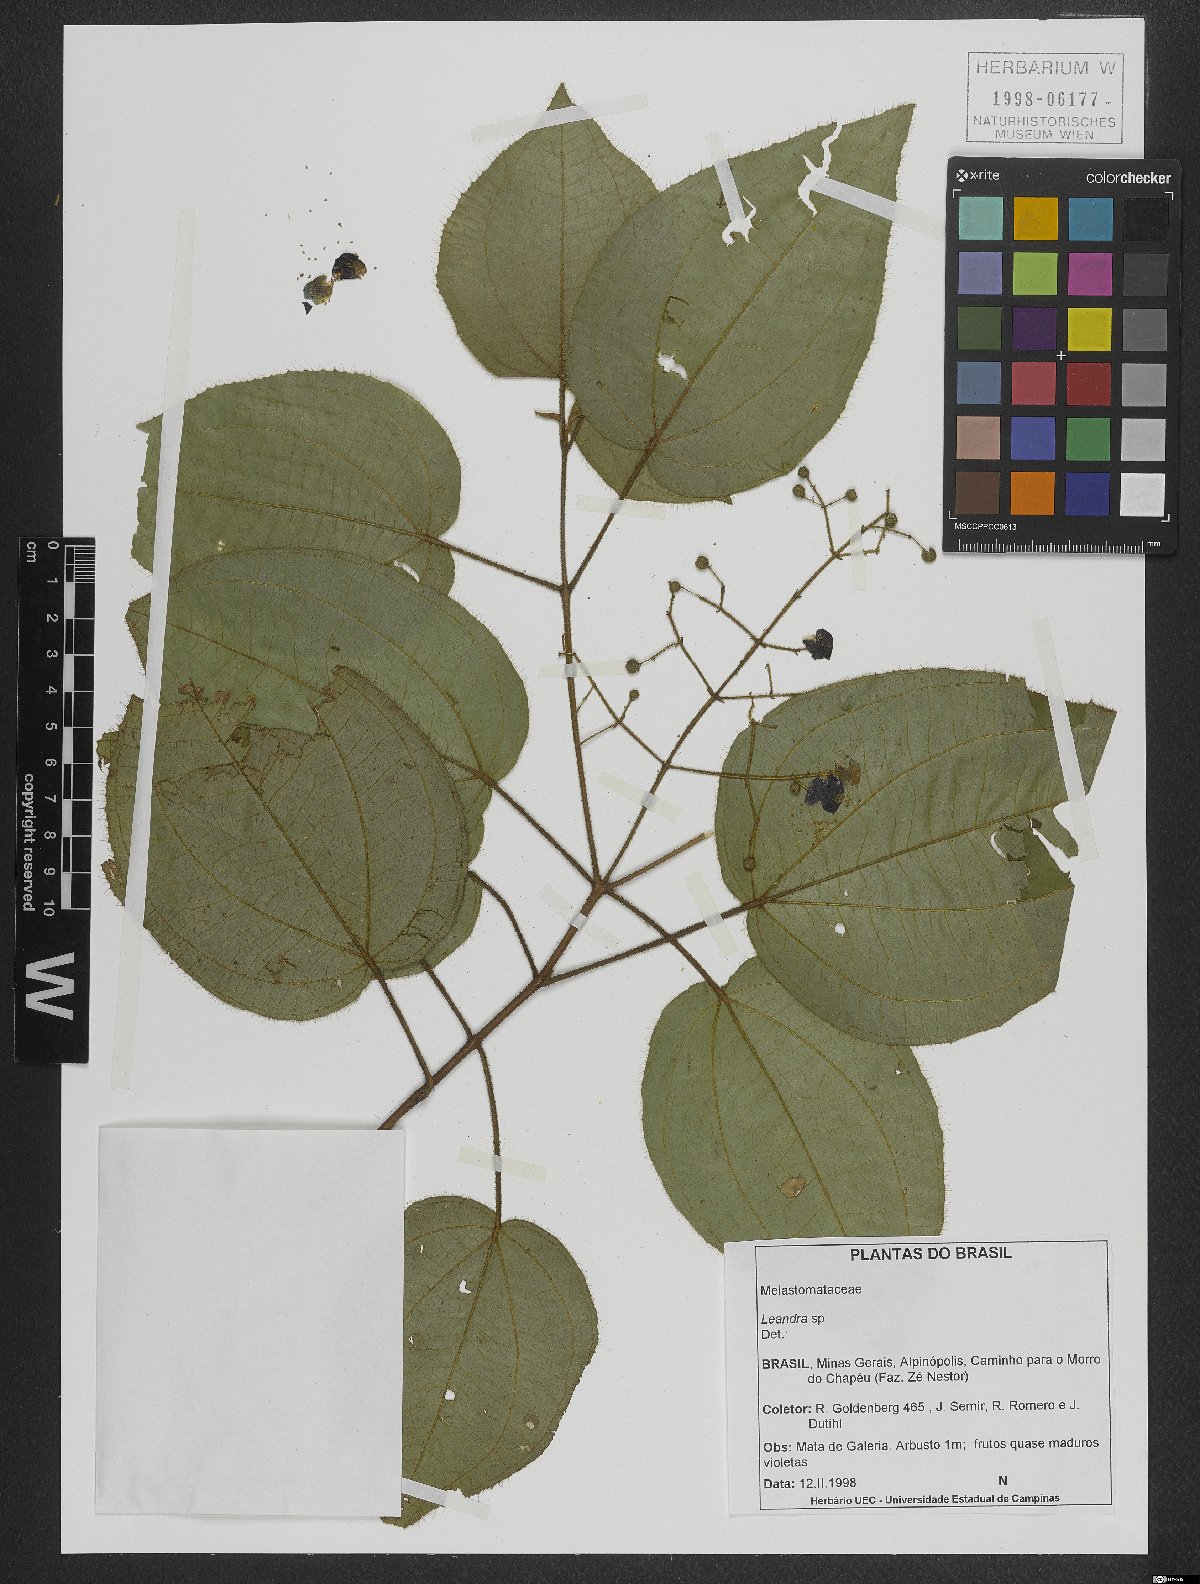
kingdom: Plantae
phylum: Tracheophyta
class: Magnoliopsida
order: Myrtales
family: Melastomataceae
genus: Miconia
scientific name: Miconia
